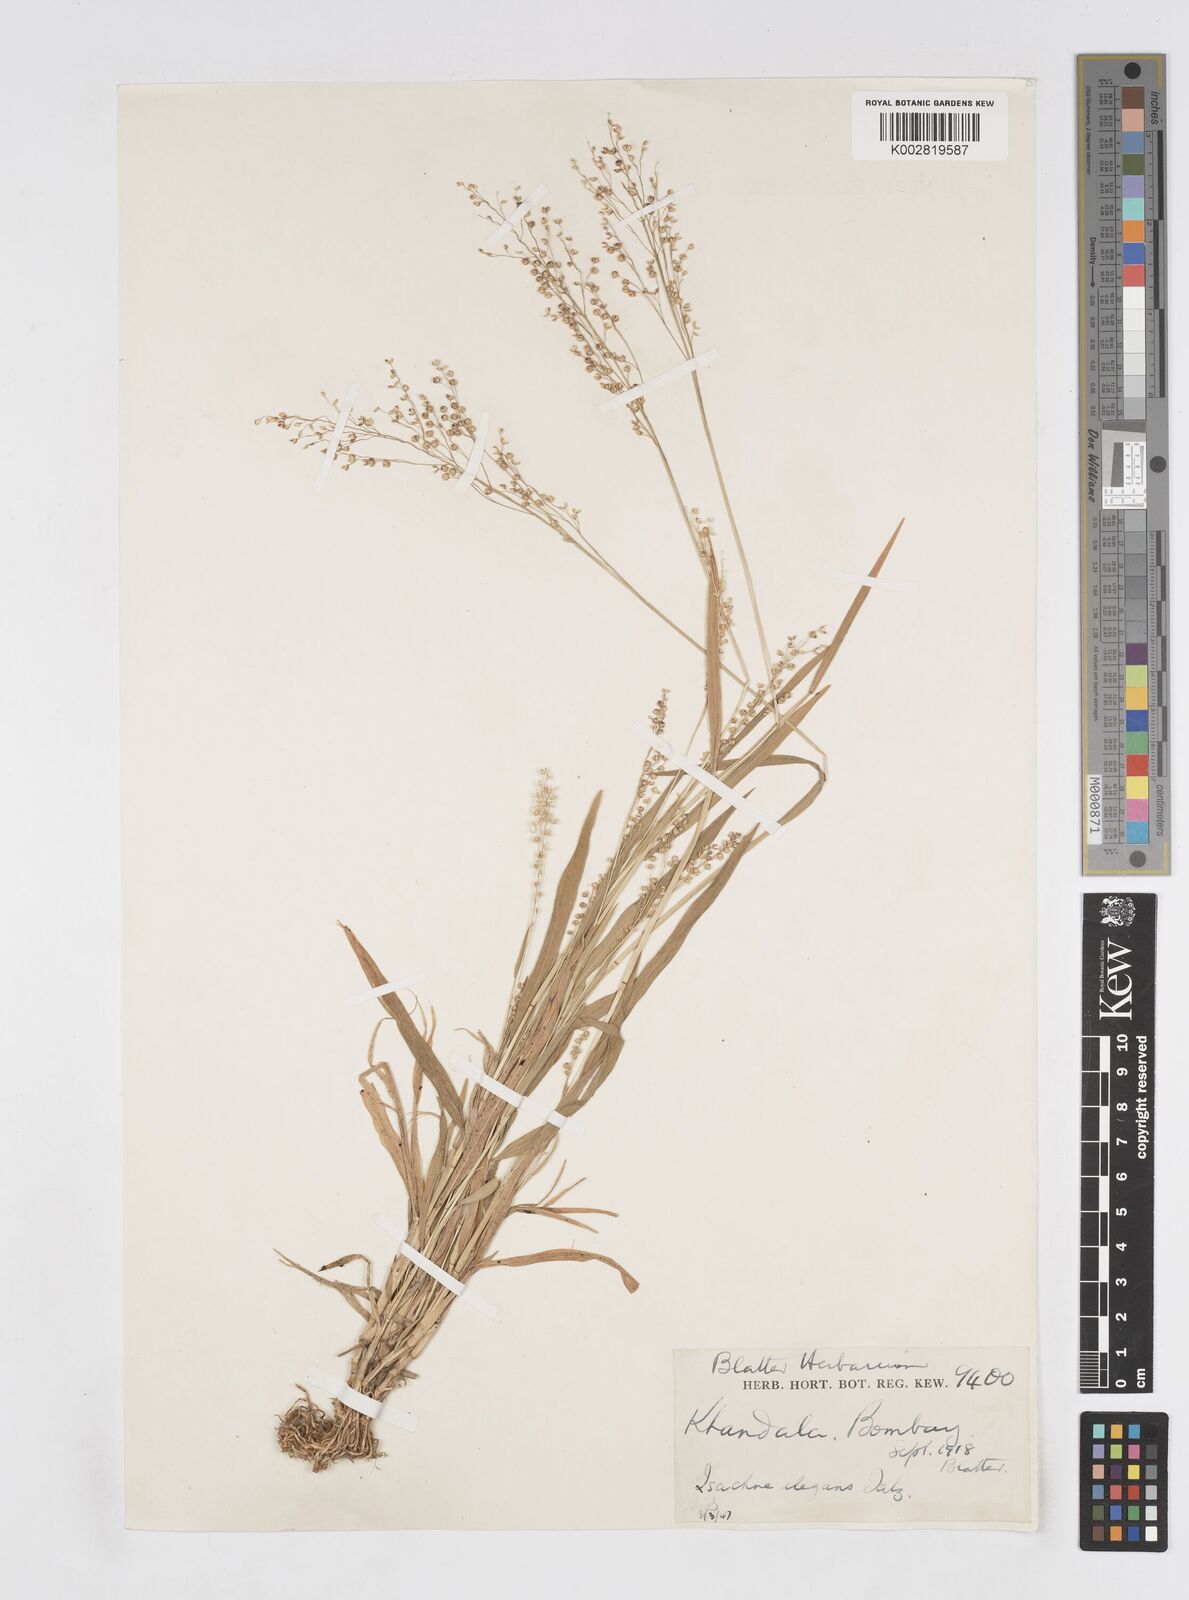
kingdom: Plantae
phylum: Tracheophyta
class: Liliopsida
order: Poales
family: Poaceae
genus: Isachne
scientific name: Isachne elegans
